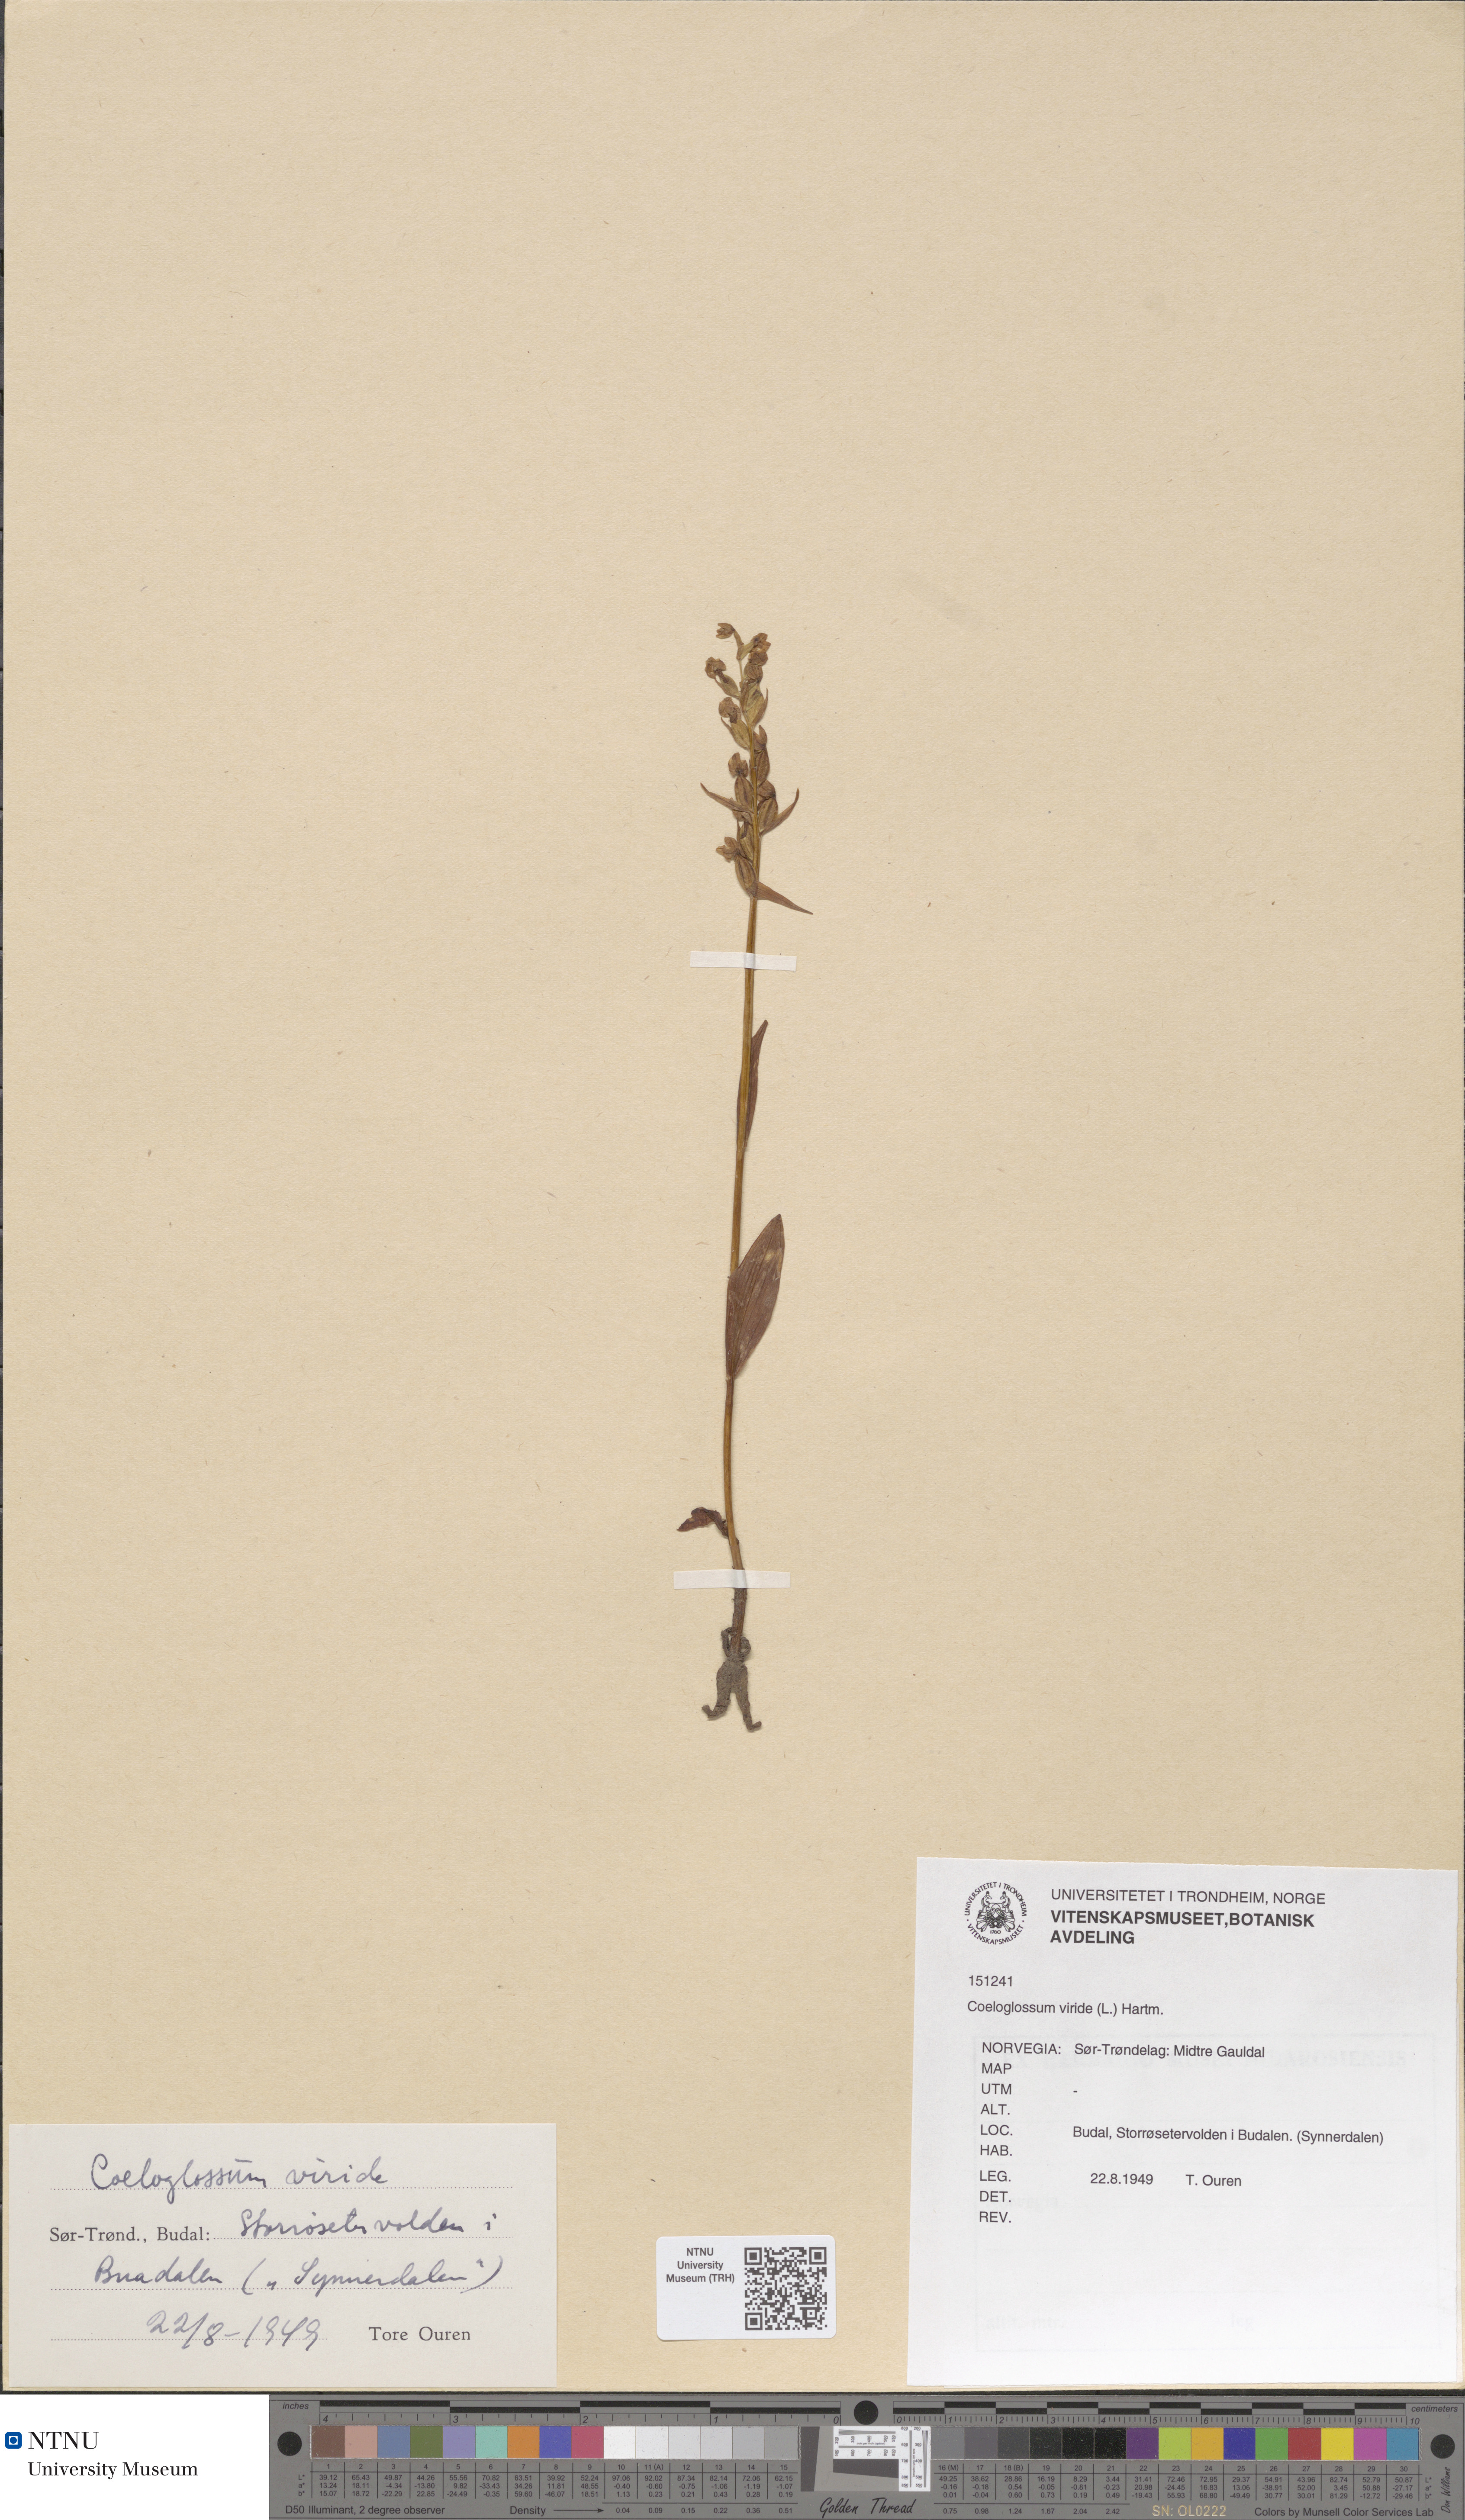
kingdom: Plantae
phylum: Tracheophyta
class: Liliopsida
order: Asparagales
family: Orchidaceae
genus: Dactylorhiza
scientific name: Dactylorhiza viridis
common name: Longbract frog orchid
